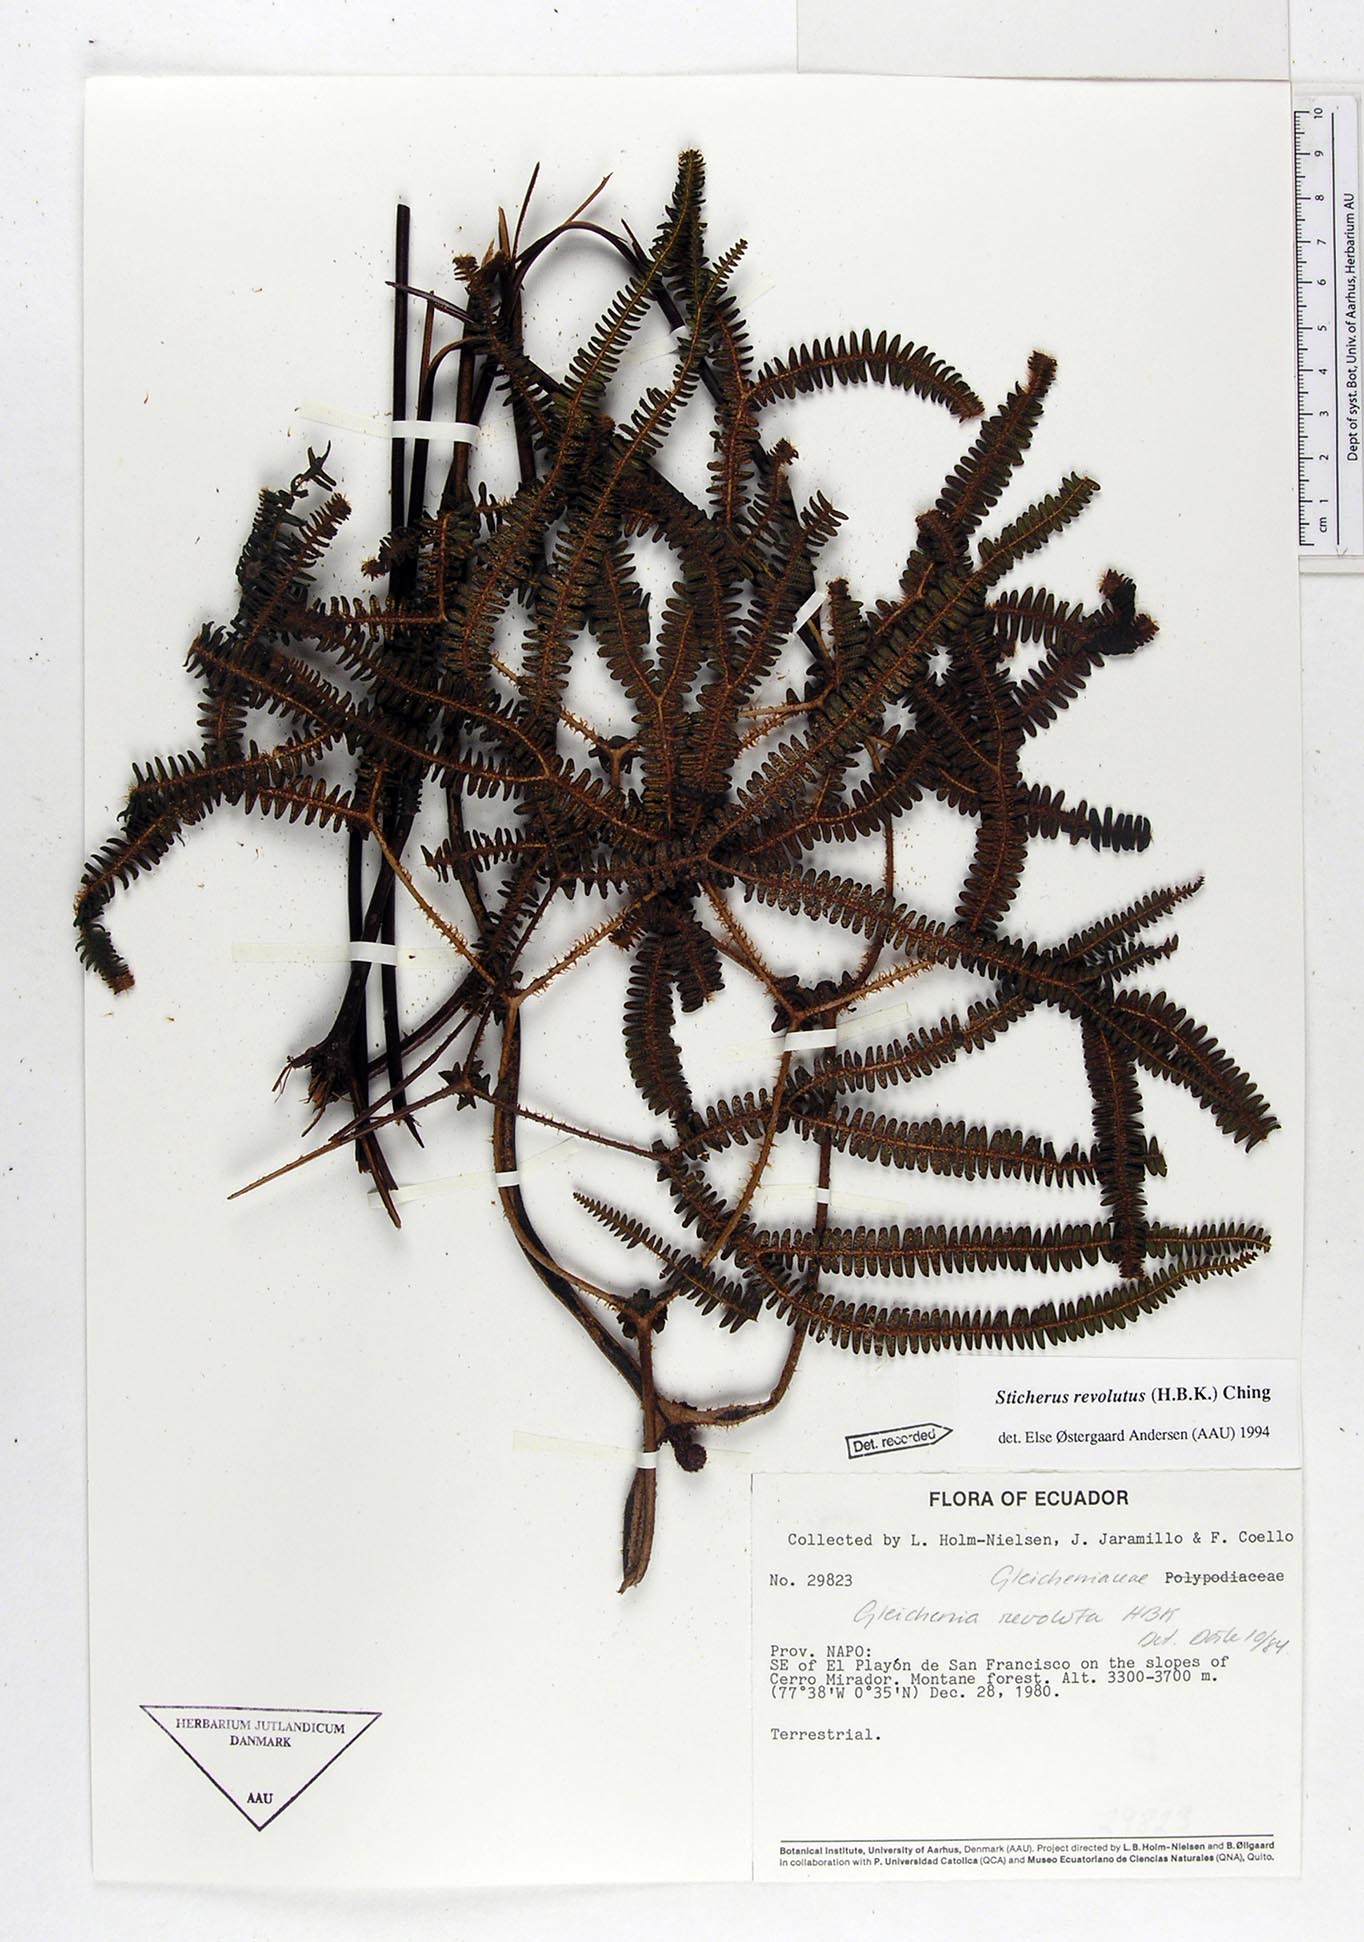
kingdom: Plantae
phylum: Tracheophyta
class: Polypodiopsida
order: Gleicheniales
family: Gleicheniaceae
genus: Sticherus
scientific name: Sticherus revolutus
